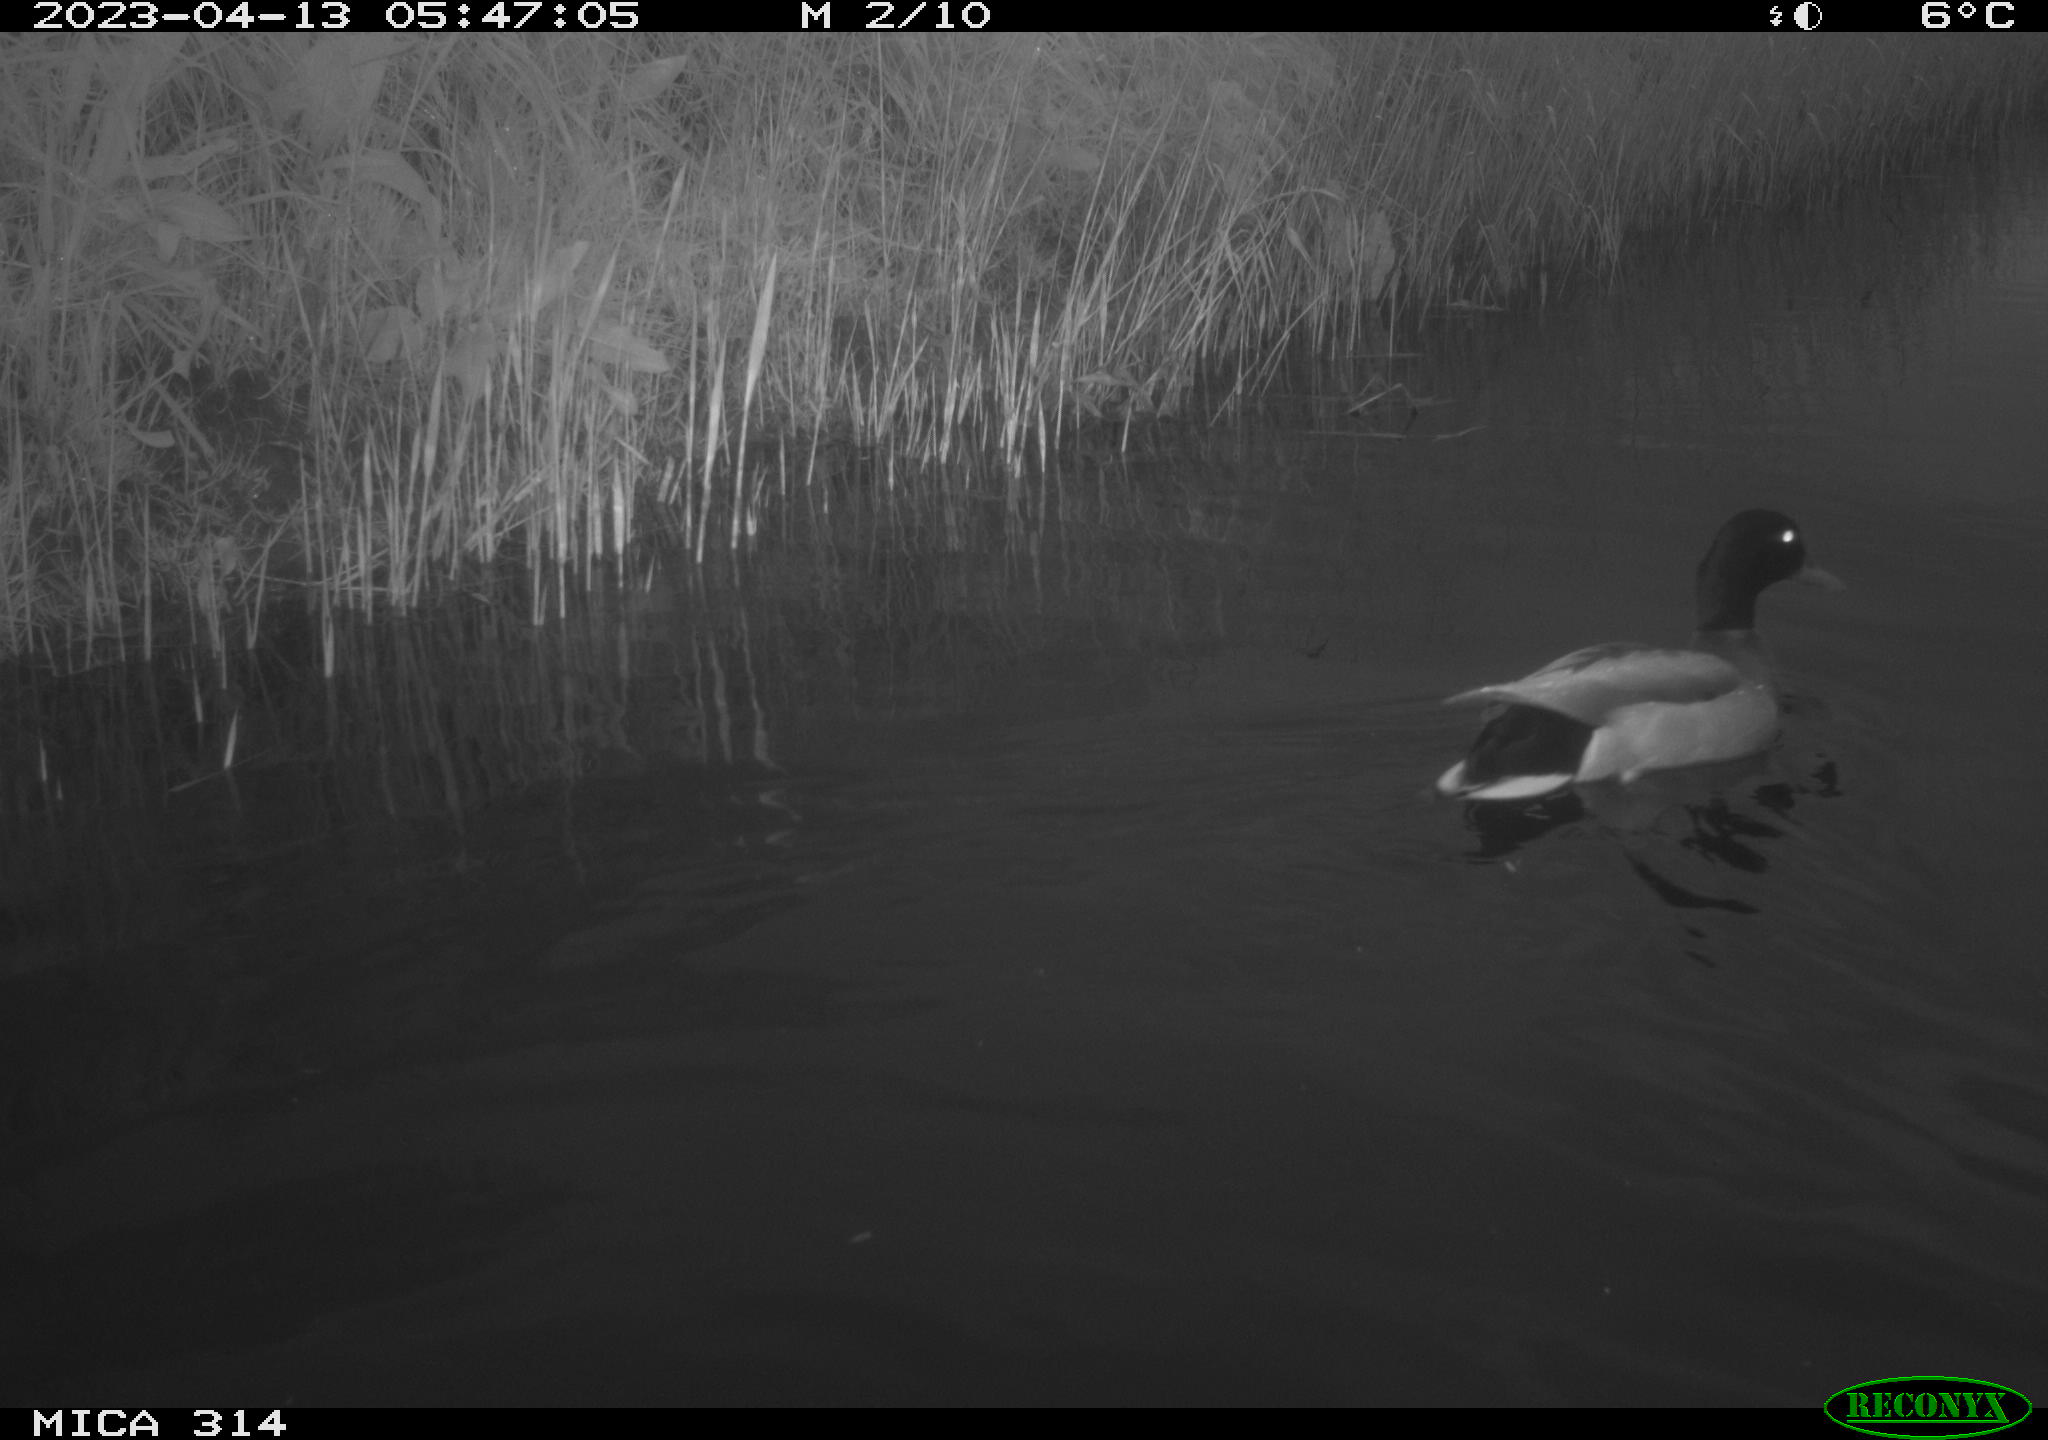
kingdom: Animalia
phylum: Chordata
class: Aves
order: Anseriformes
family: Anatidae
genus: Anas
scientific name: Anas
